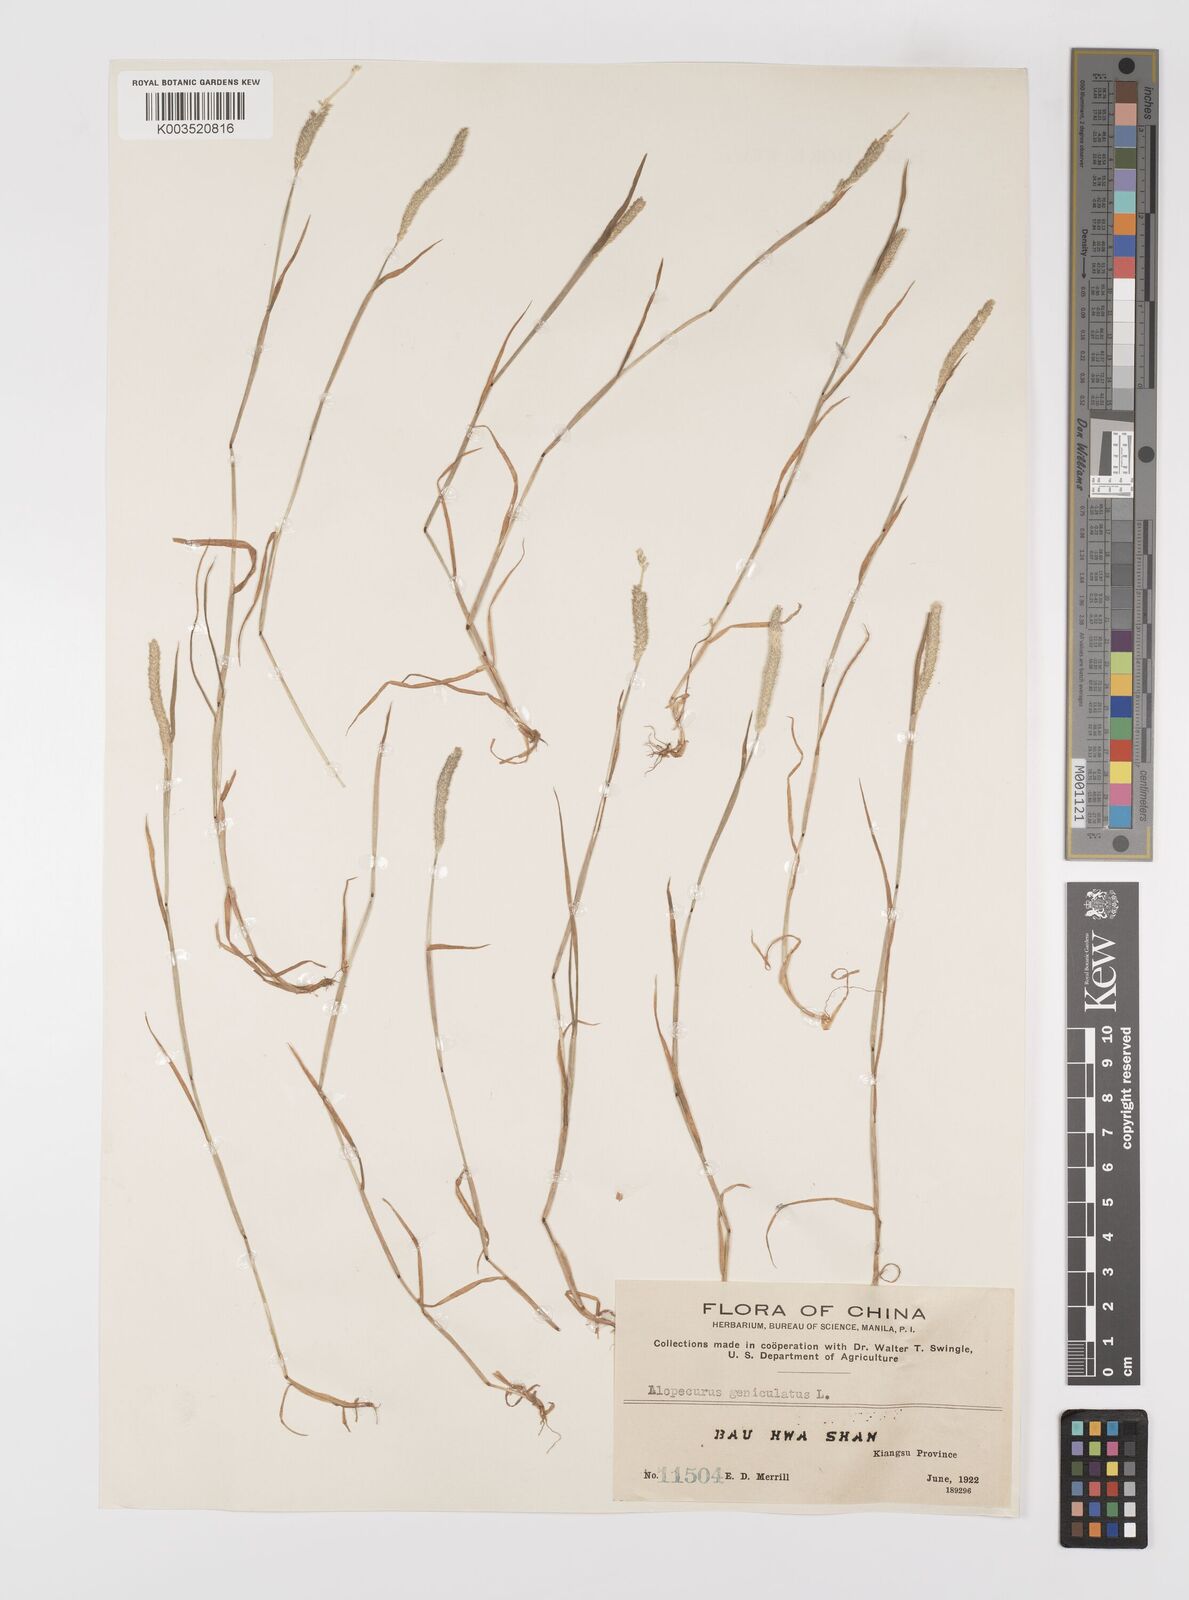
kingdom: Plantae
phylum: Tracheophyta
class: Liliopsida
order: Poales
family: Poaceae
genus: Alopecurus
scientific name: Alopecurus aequalis
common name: Orange foxtail
